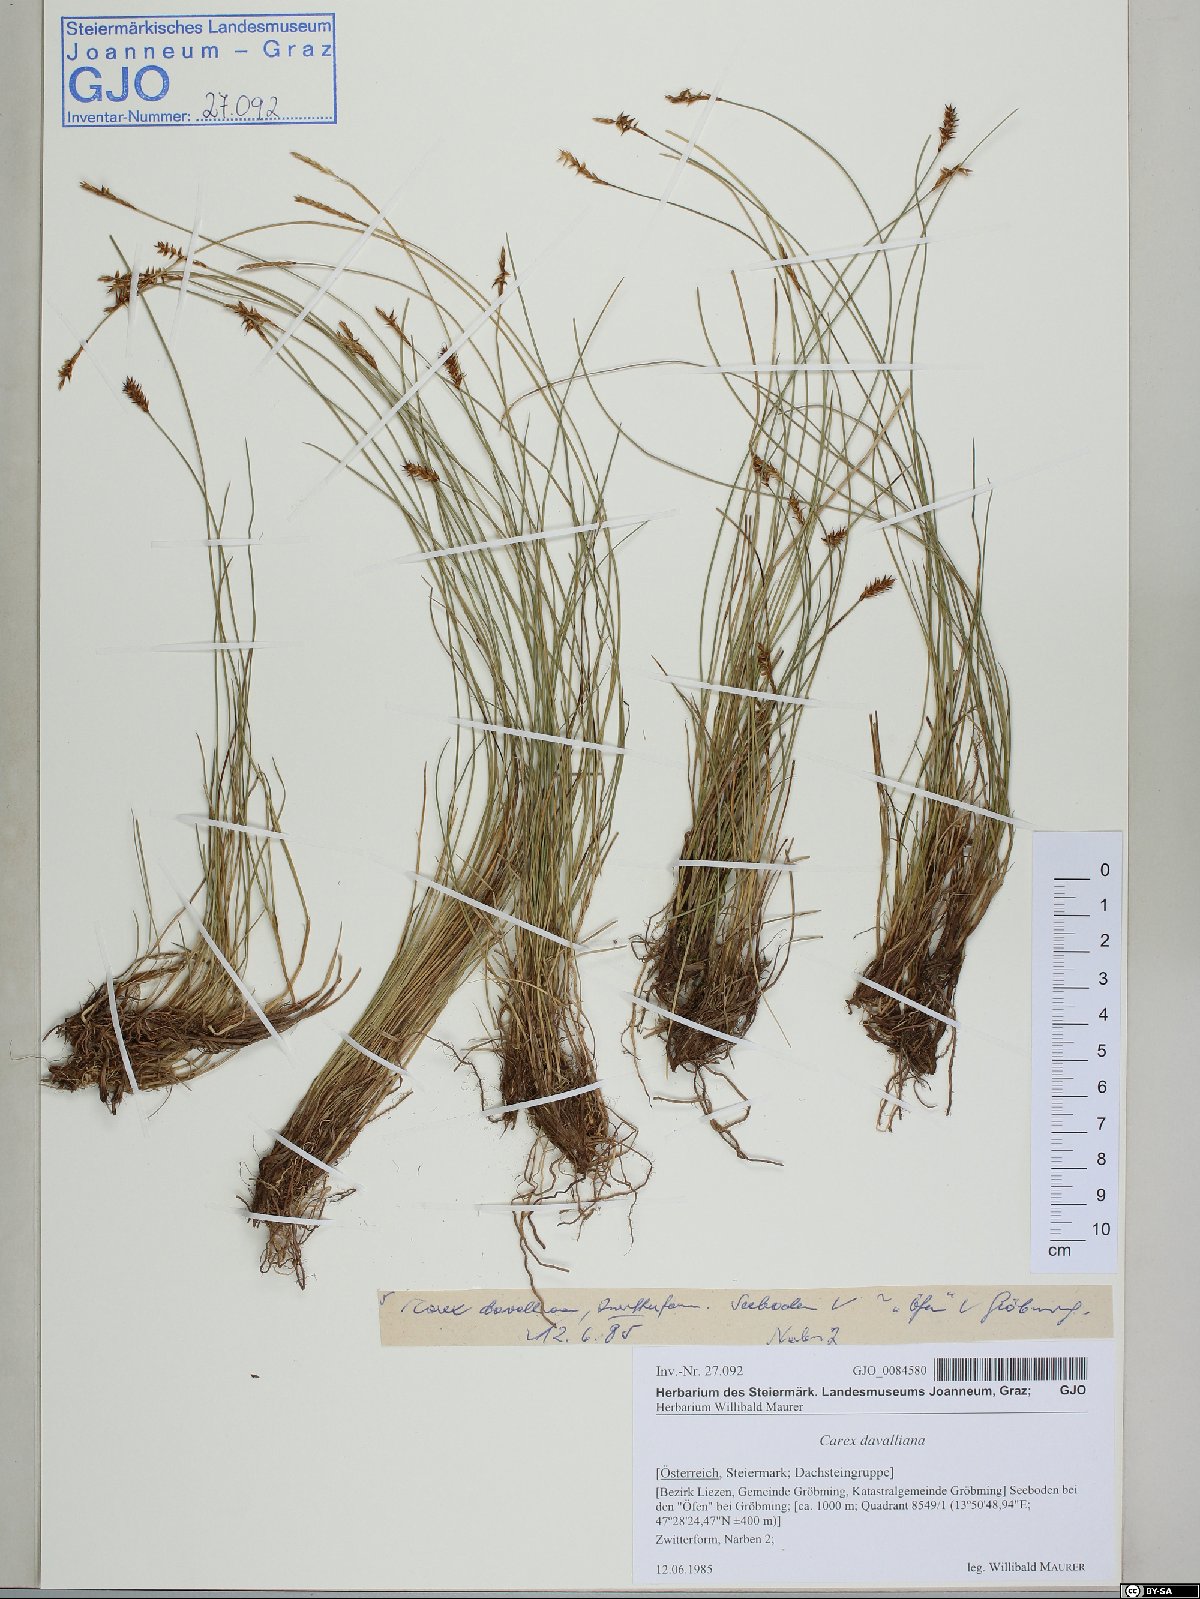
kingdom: Plantae
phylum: Tracheophyta
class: Liliopsida
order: Poales
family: Cyperaceae
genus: Carex
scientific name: Carex davalliana
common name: Davall's sedge
